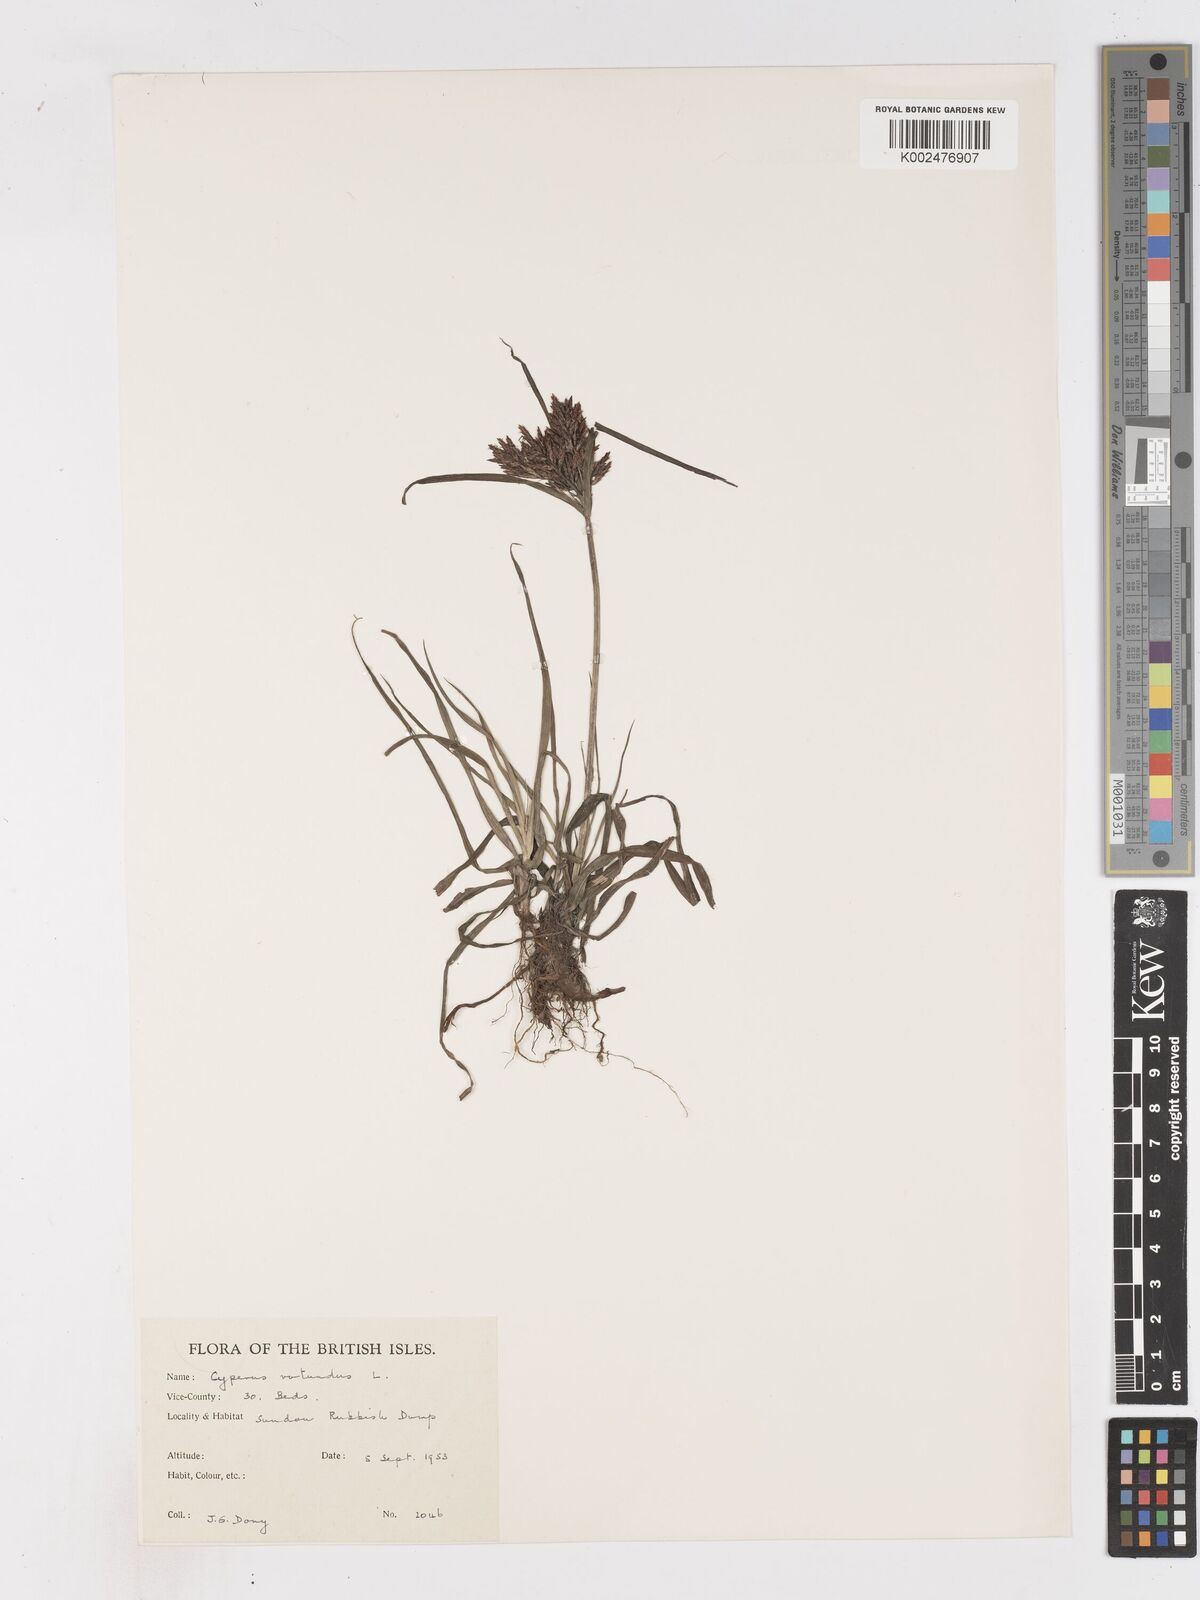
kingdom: Plantae
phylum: Tracheophyta
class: Liliopsida
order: Poales
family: Cyperaceae
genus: Cyperus
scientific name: Cyperus rotundus
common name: Nutgrass
